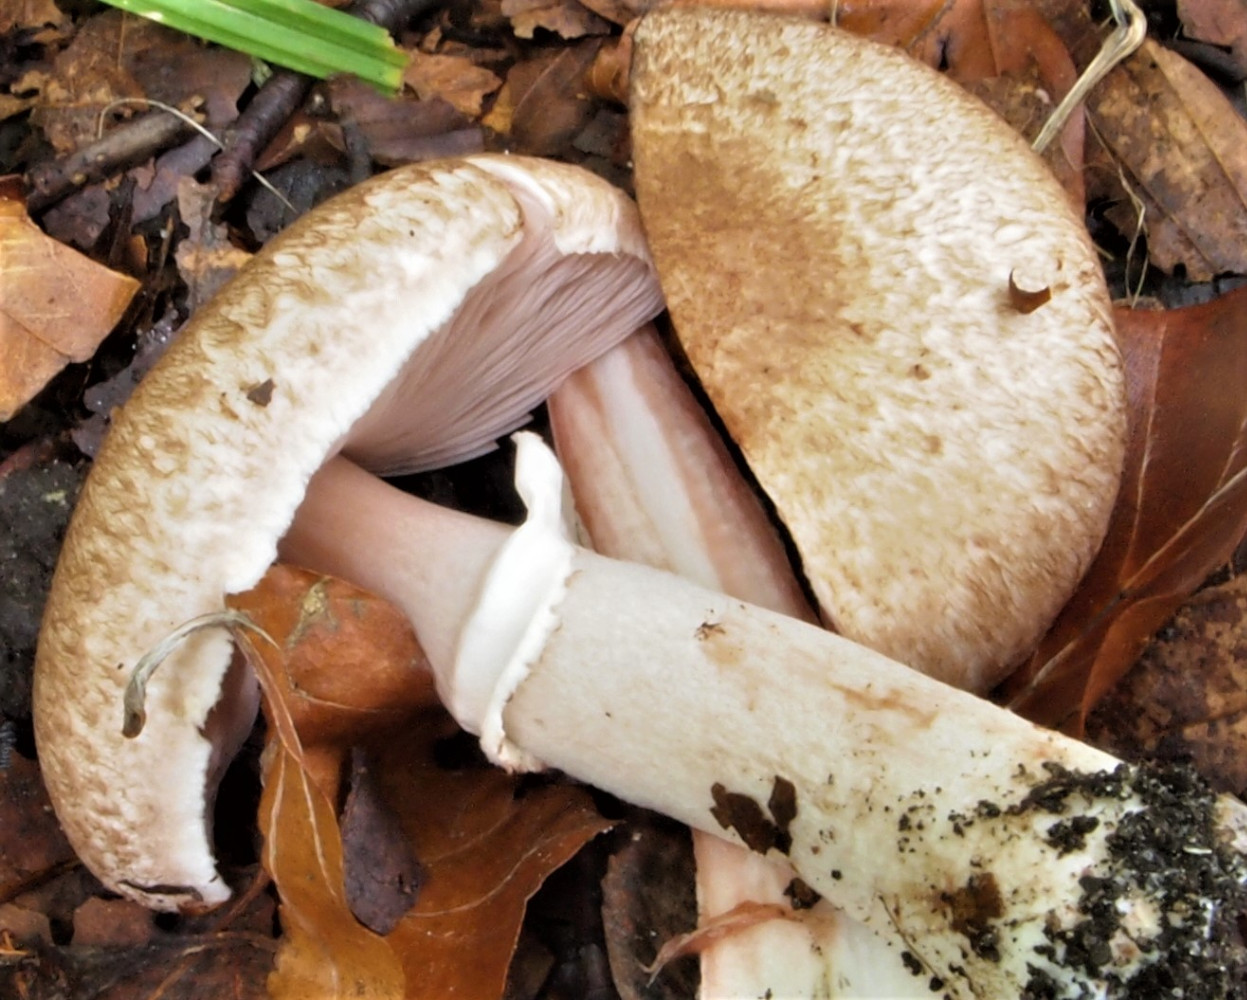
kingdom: Fungi
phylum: Basidiomycota
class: Agaricomycetes
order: Agaricales
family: Agaricaceae
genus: Agaricus
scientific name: Agaricus
